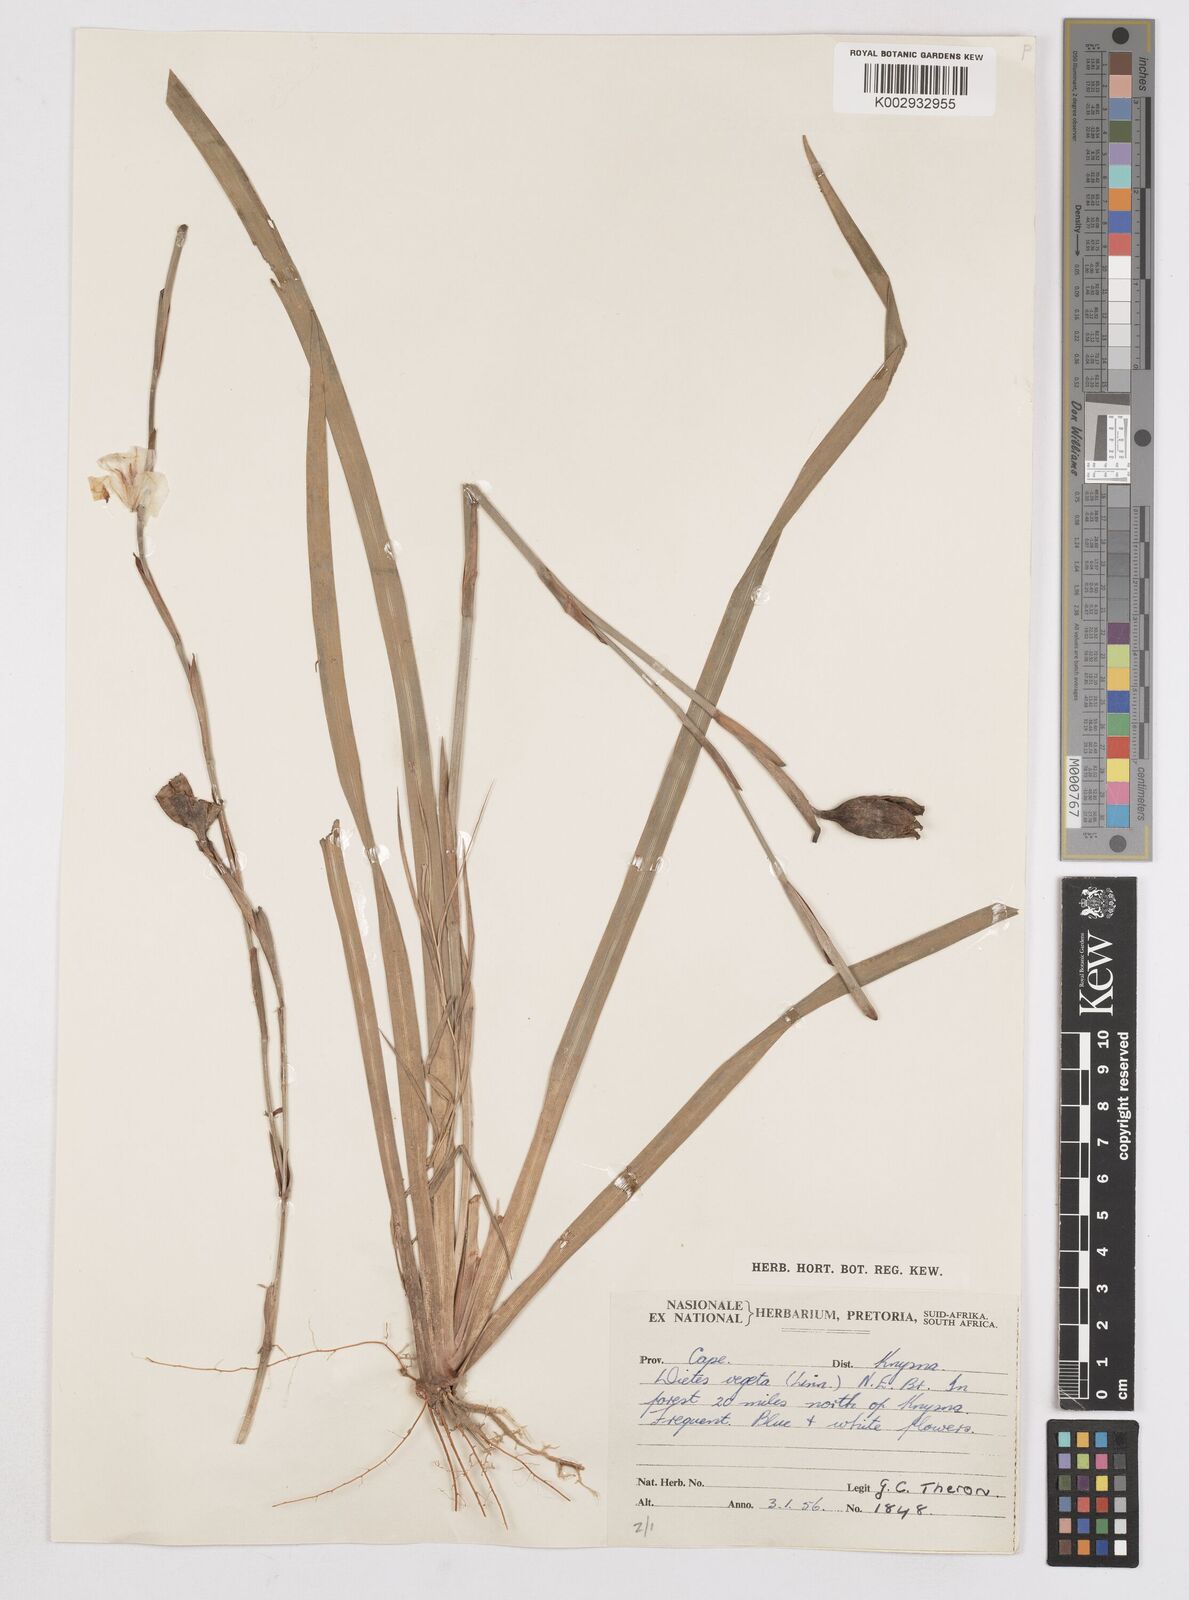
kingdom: Plantae
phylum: Tracheophyta
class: Liliopsida
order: Asparagales
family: Iridaceae
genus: Dietes
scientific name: Dietes iridioides
